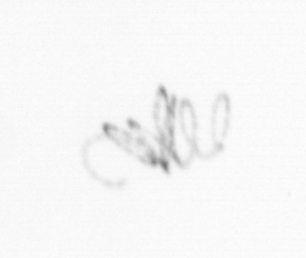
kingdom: Chromista
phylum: Ochrophyta
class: Bacillariophyceae
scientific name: Bacillariophyceae
